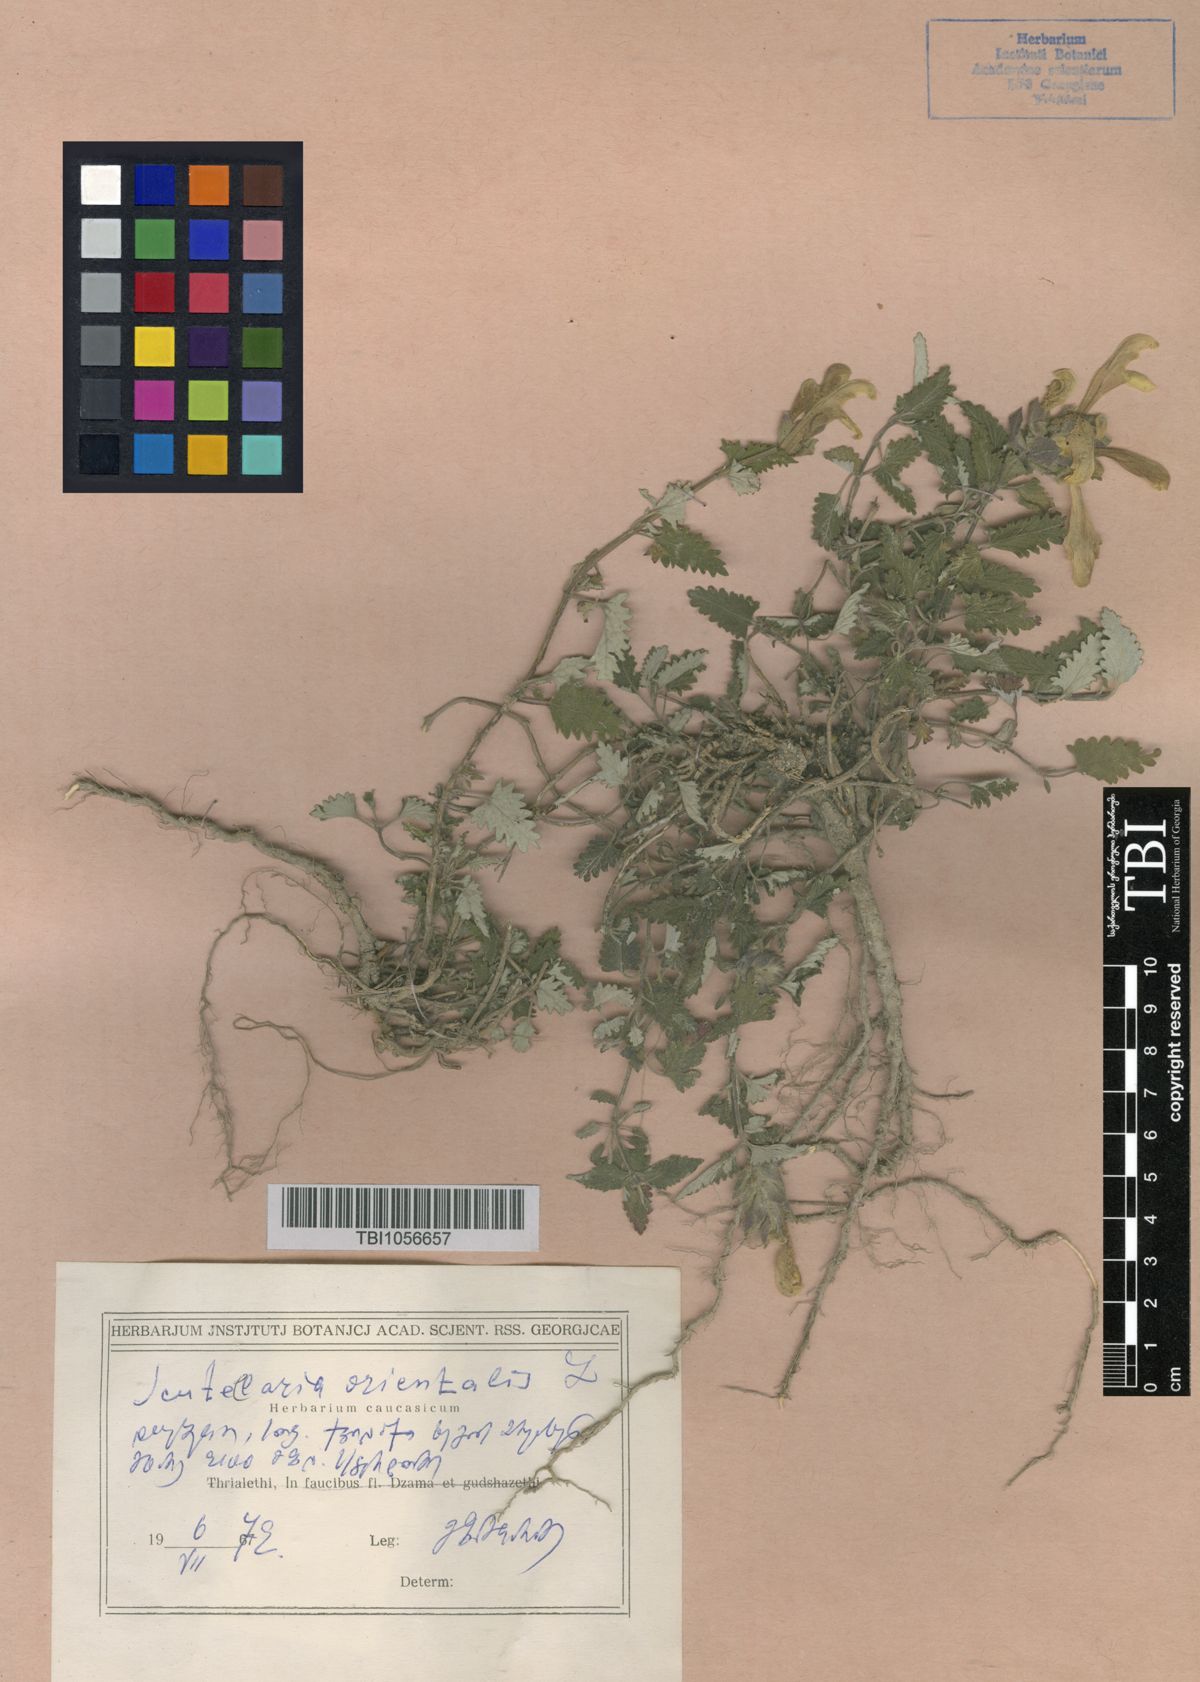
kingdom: Plantae
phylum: Tracheophyta
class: Magnoliopsida
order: Lamiales
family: Lamiaceae
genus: Scutellaria
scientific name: Scutellaria orientalis
